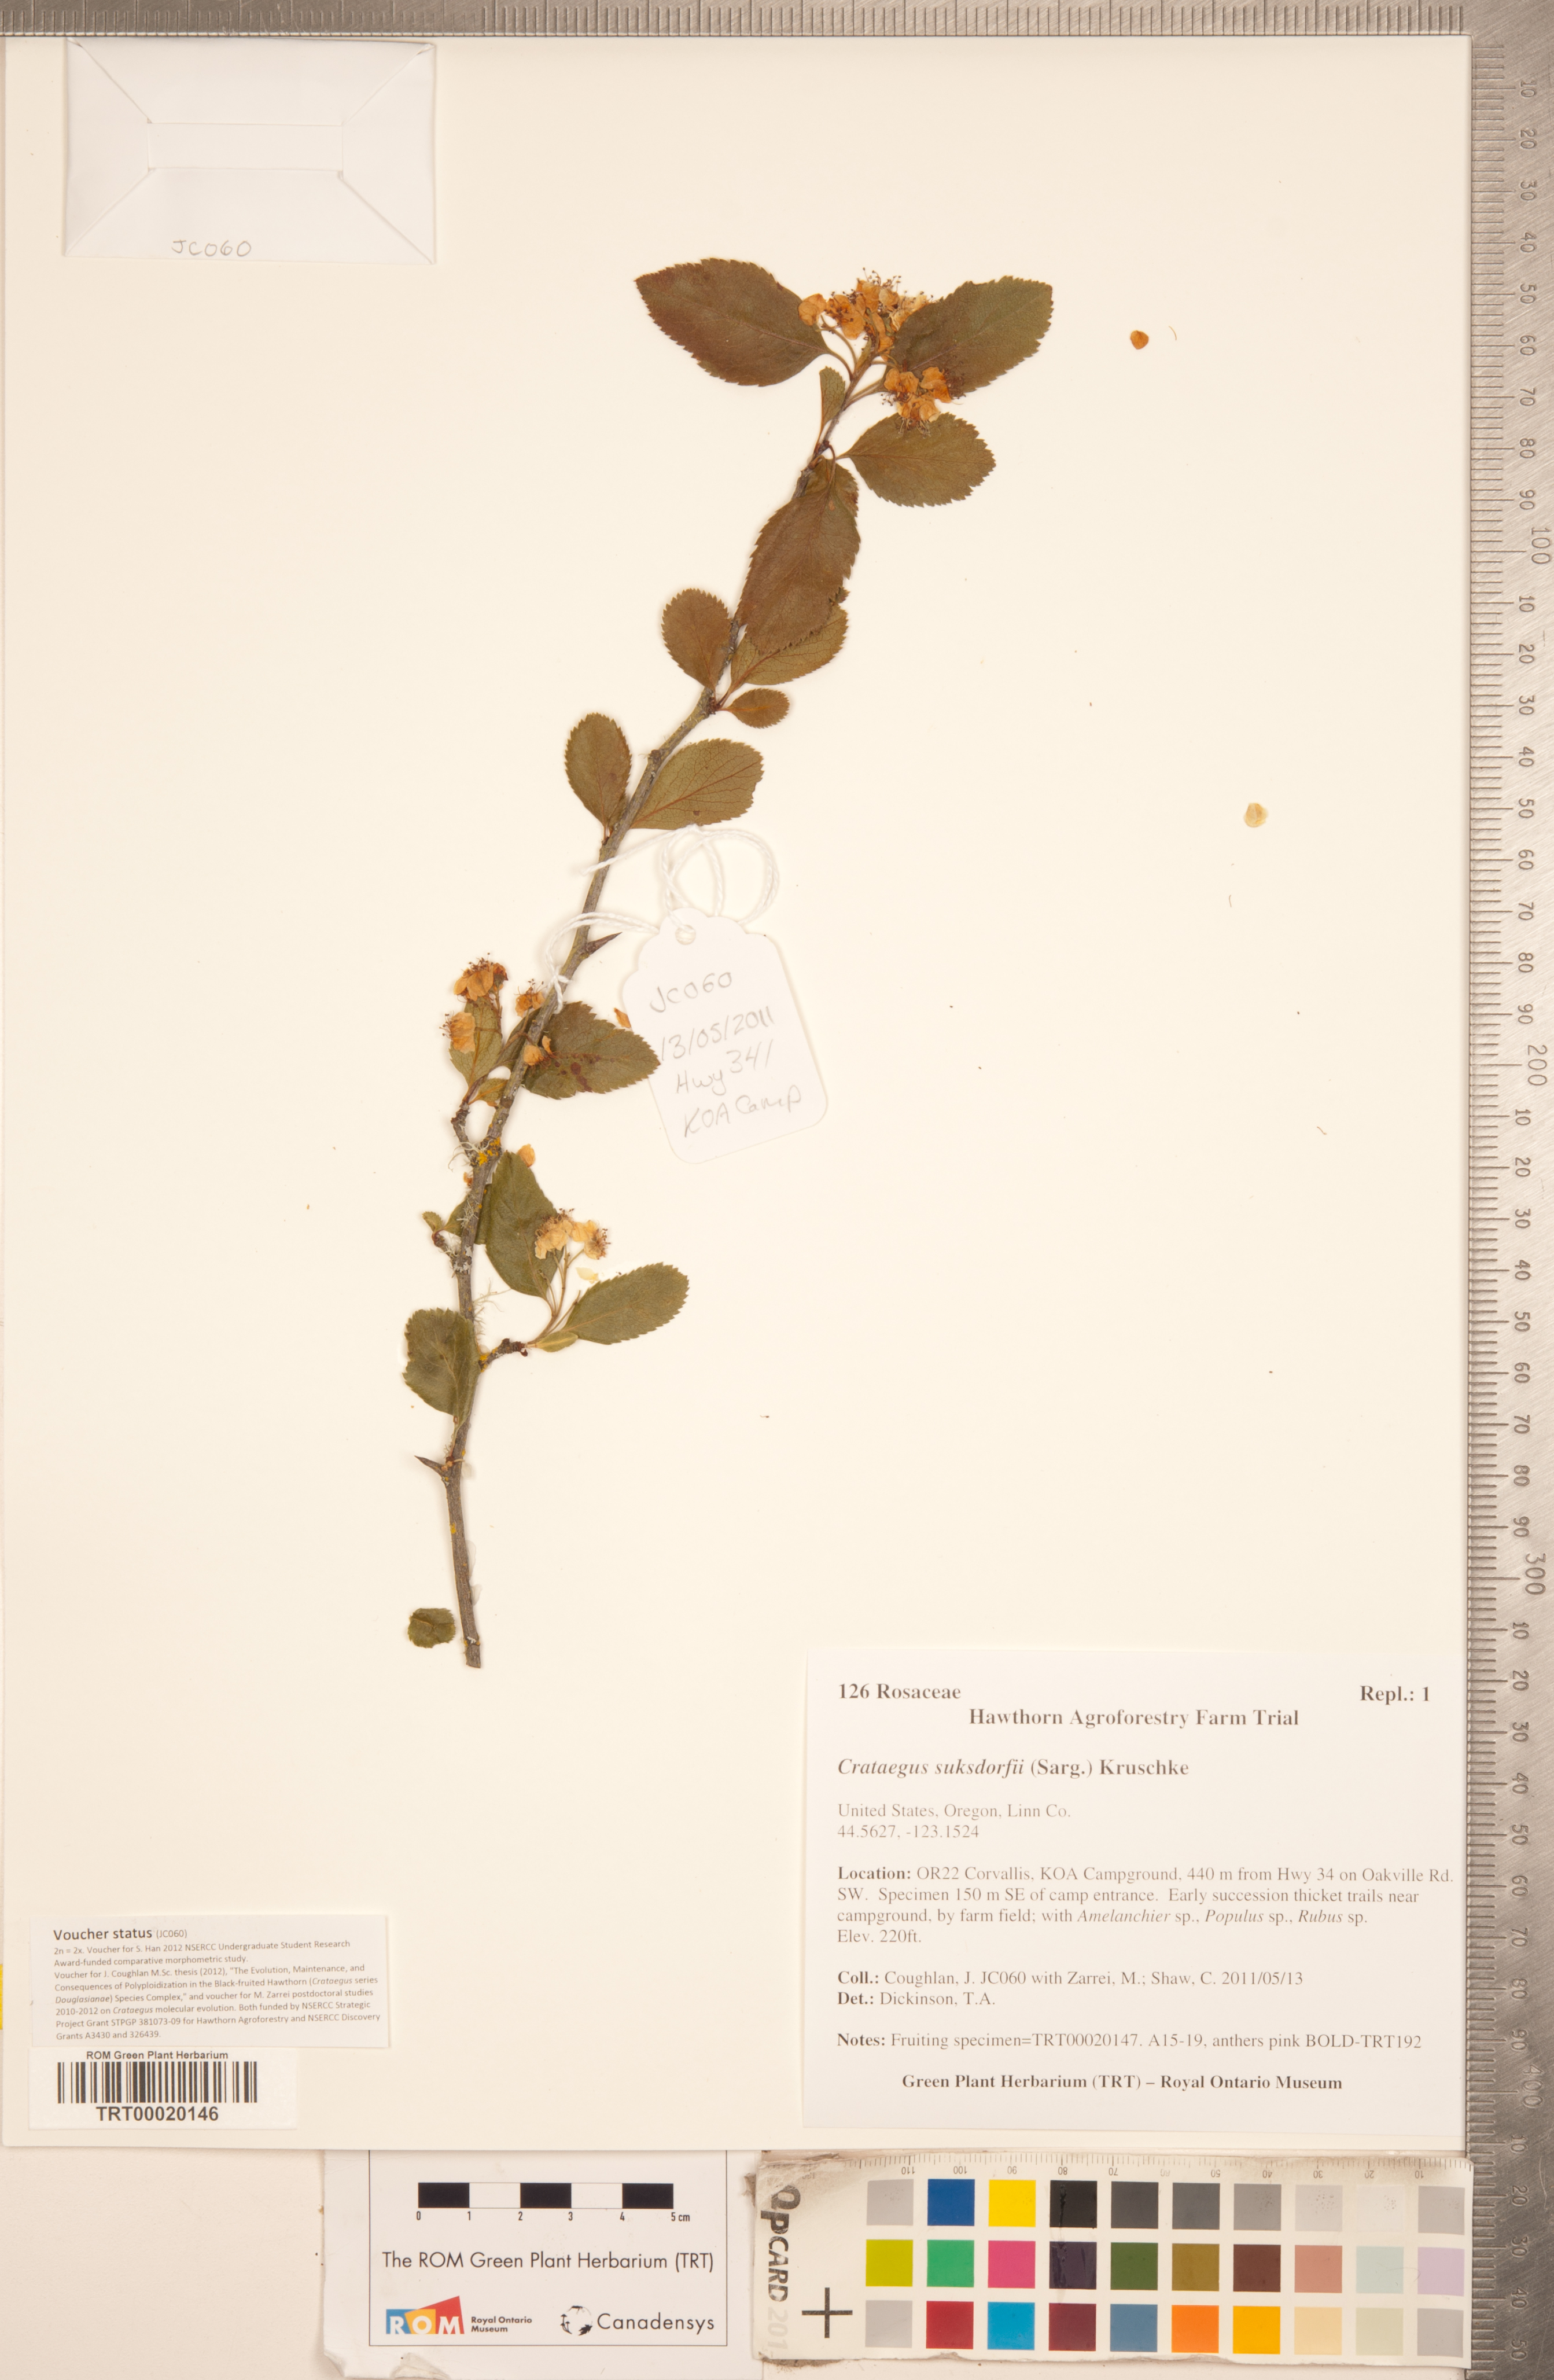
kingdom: Plantae
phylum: Tracheophyta
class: Magnoliopsida
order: Rosales
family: Rosaceae
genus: Crataegus
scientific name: Crataegus gaylussacia
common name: Huckleberry hawthorn
